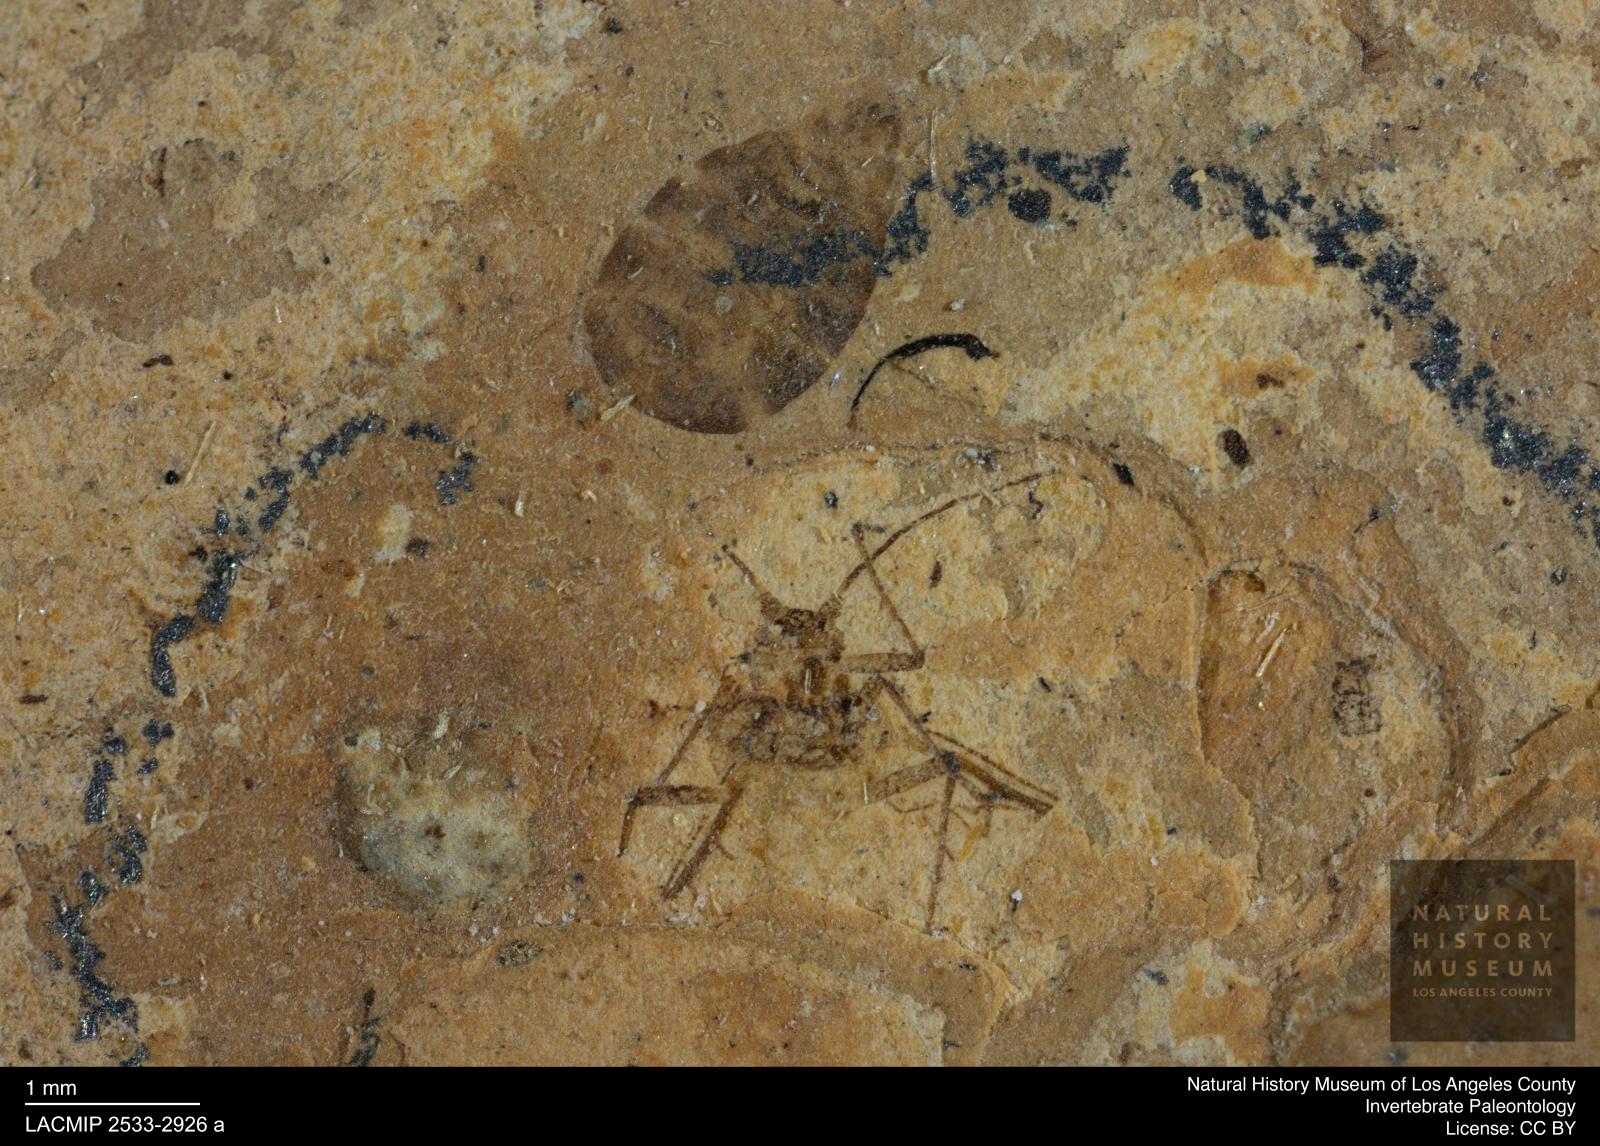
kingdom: Animalia
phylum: Arthropoda
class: Insecta
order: Hemiptera
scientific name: Hemiptera
